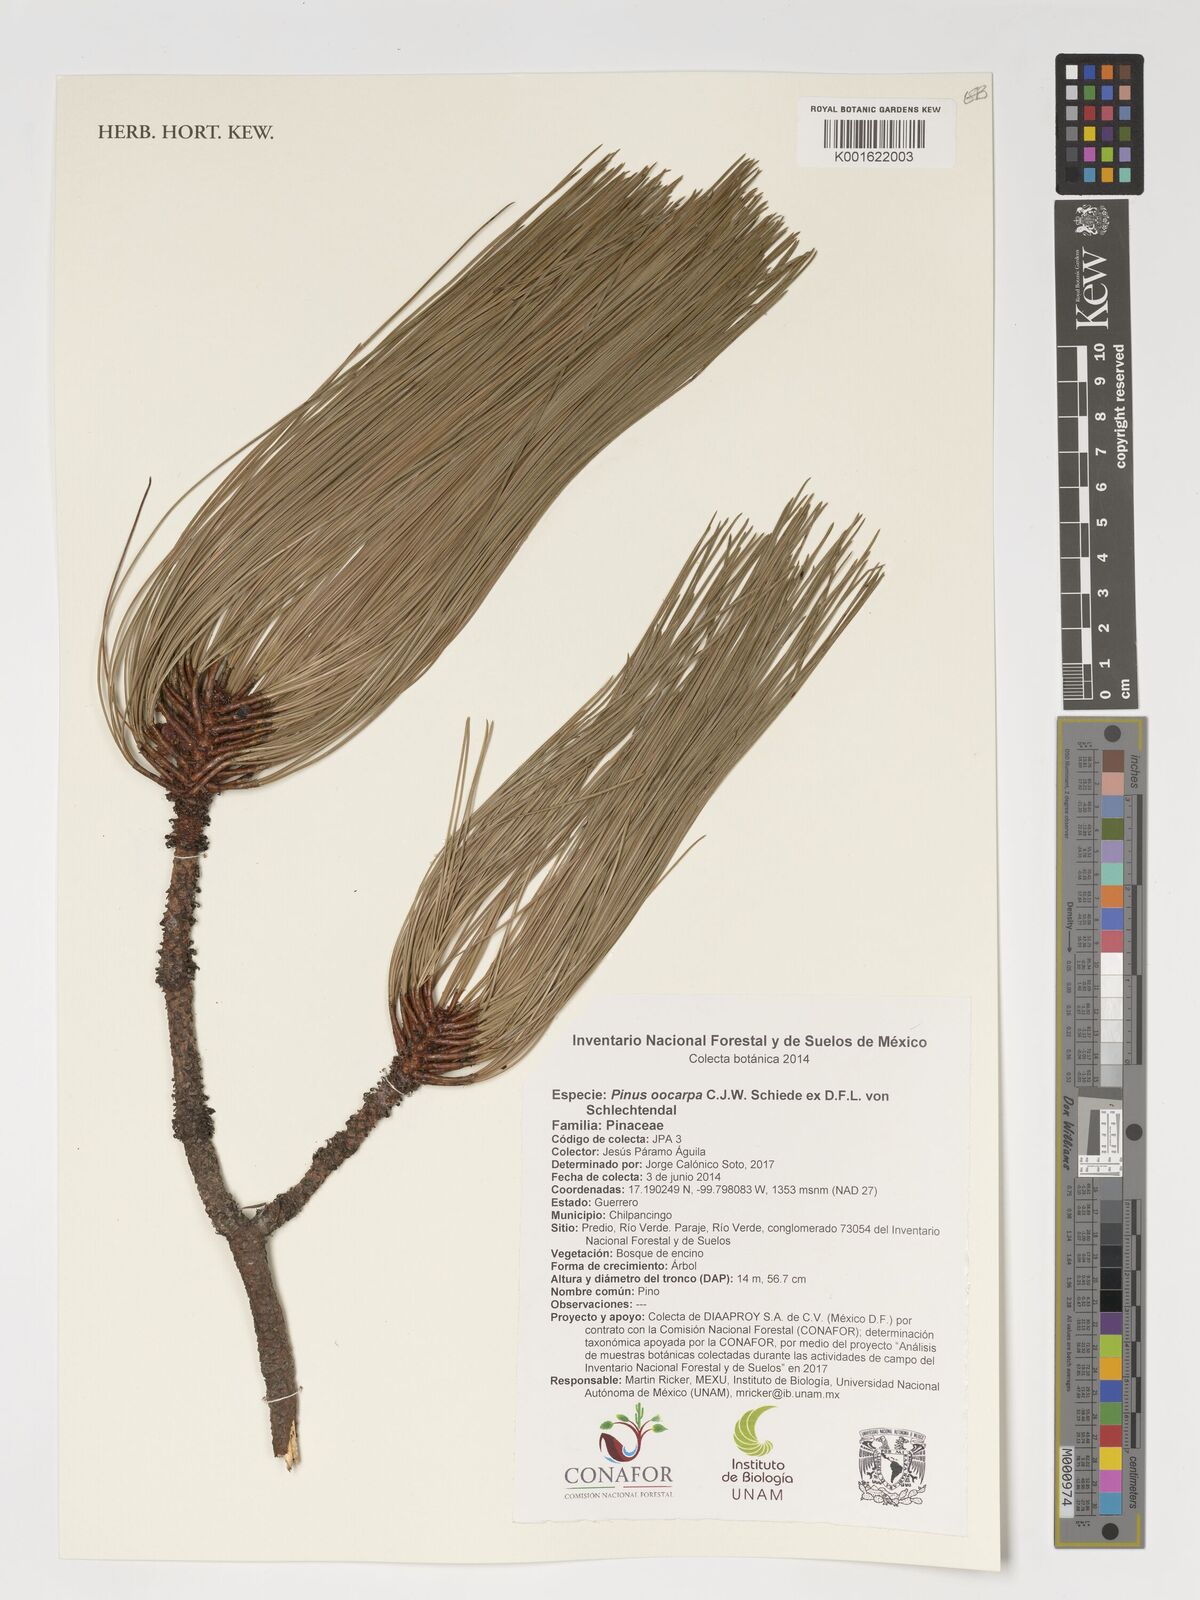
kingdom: Plantae
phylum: Tracheophyta
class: Pinopsida
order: Pinales
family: Pinaceae
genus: Pinus
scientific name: Pinus oocarpa
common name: Egg-cone pine
